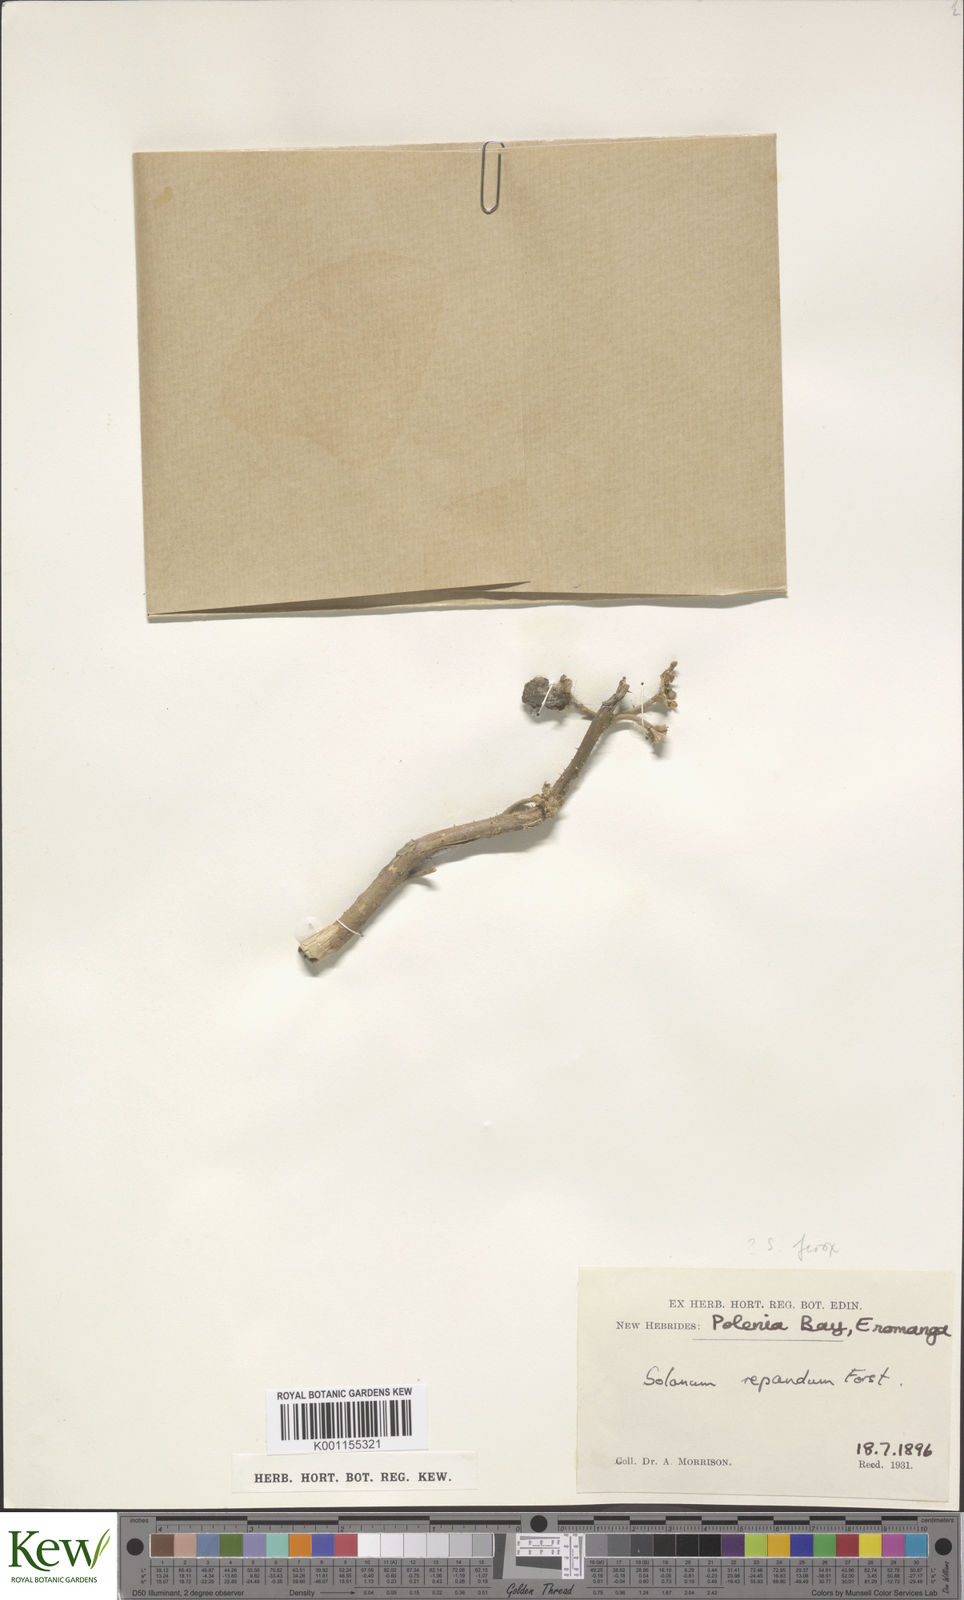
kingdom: Plantae
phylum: Tracheophyta
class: Magnoliopsida
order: Solanales
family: Solanaceae
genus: Solanum
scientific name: Solanum
